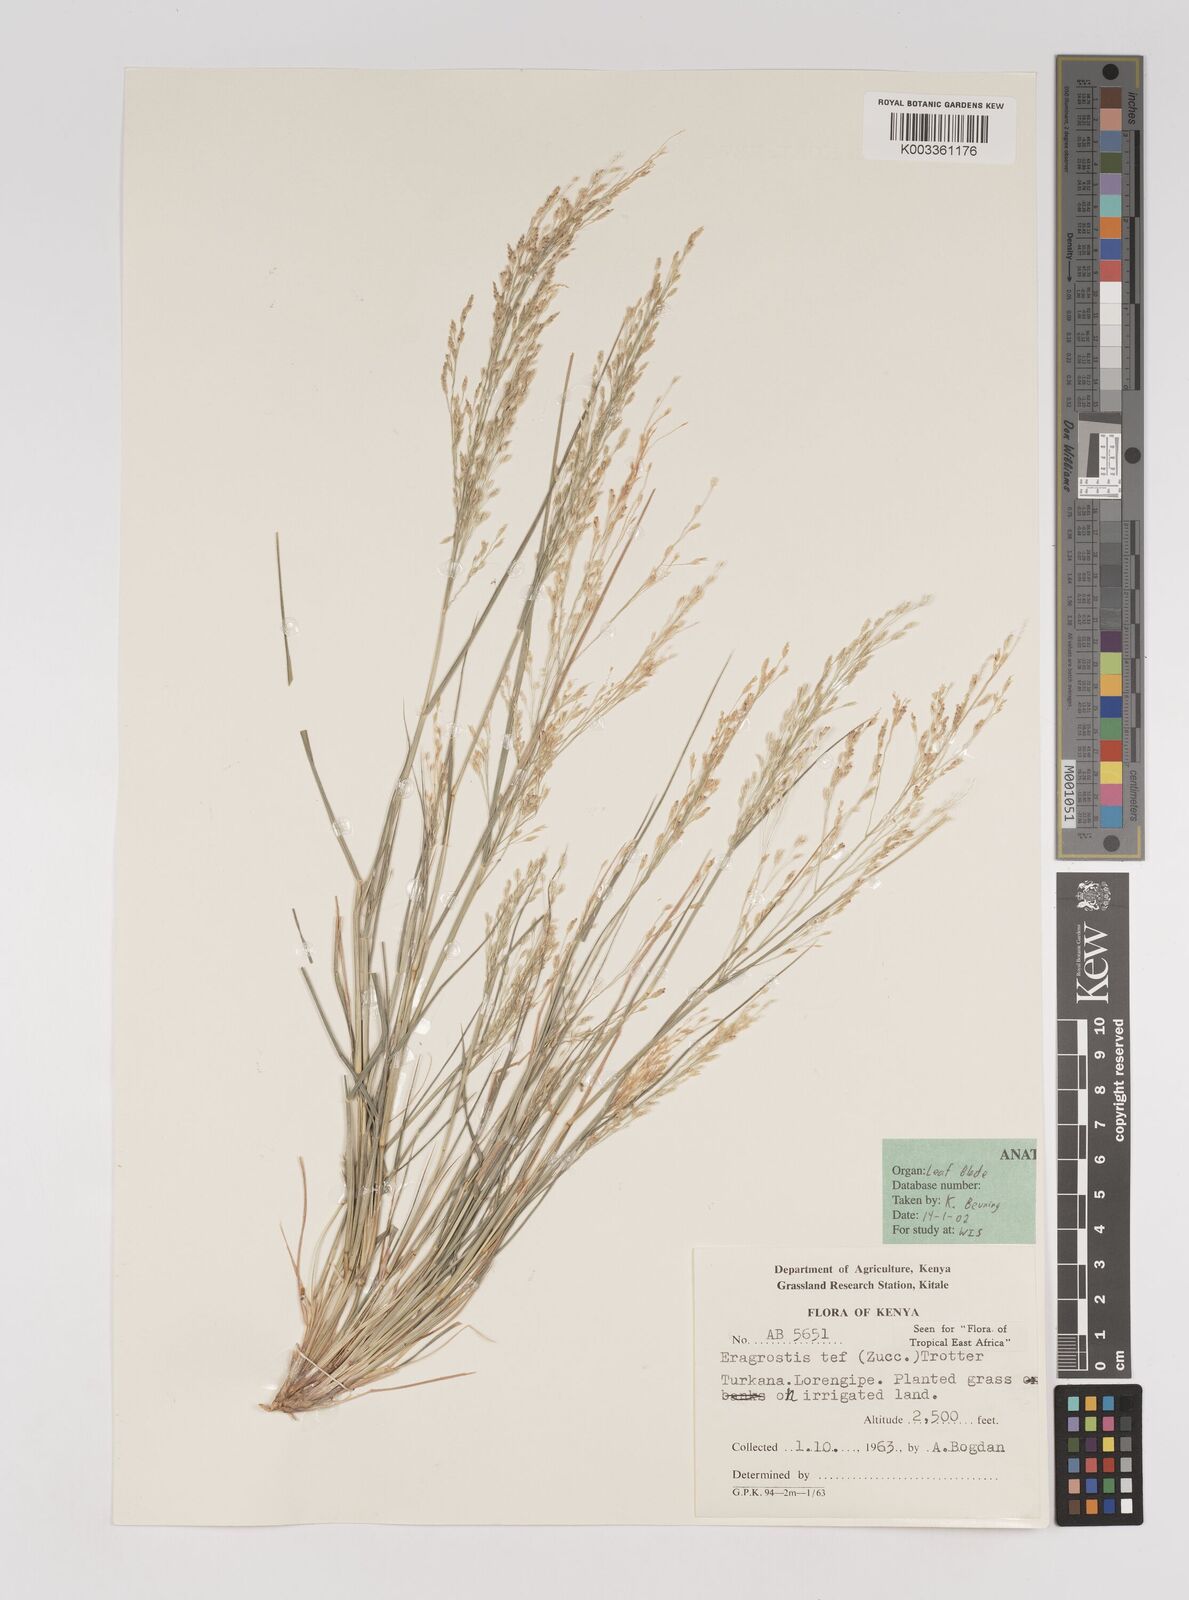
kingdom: Plantae
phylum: Tracheophyta
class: Liliopsida
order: Poales
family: Poaceae
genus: Eragrostis
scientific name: Eragrostis tef
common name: Teff
